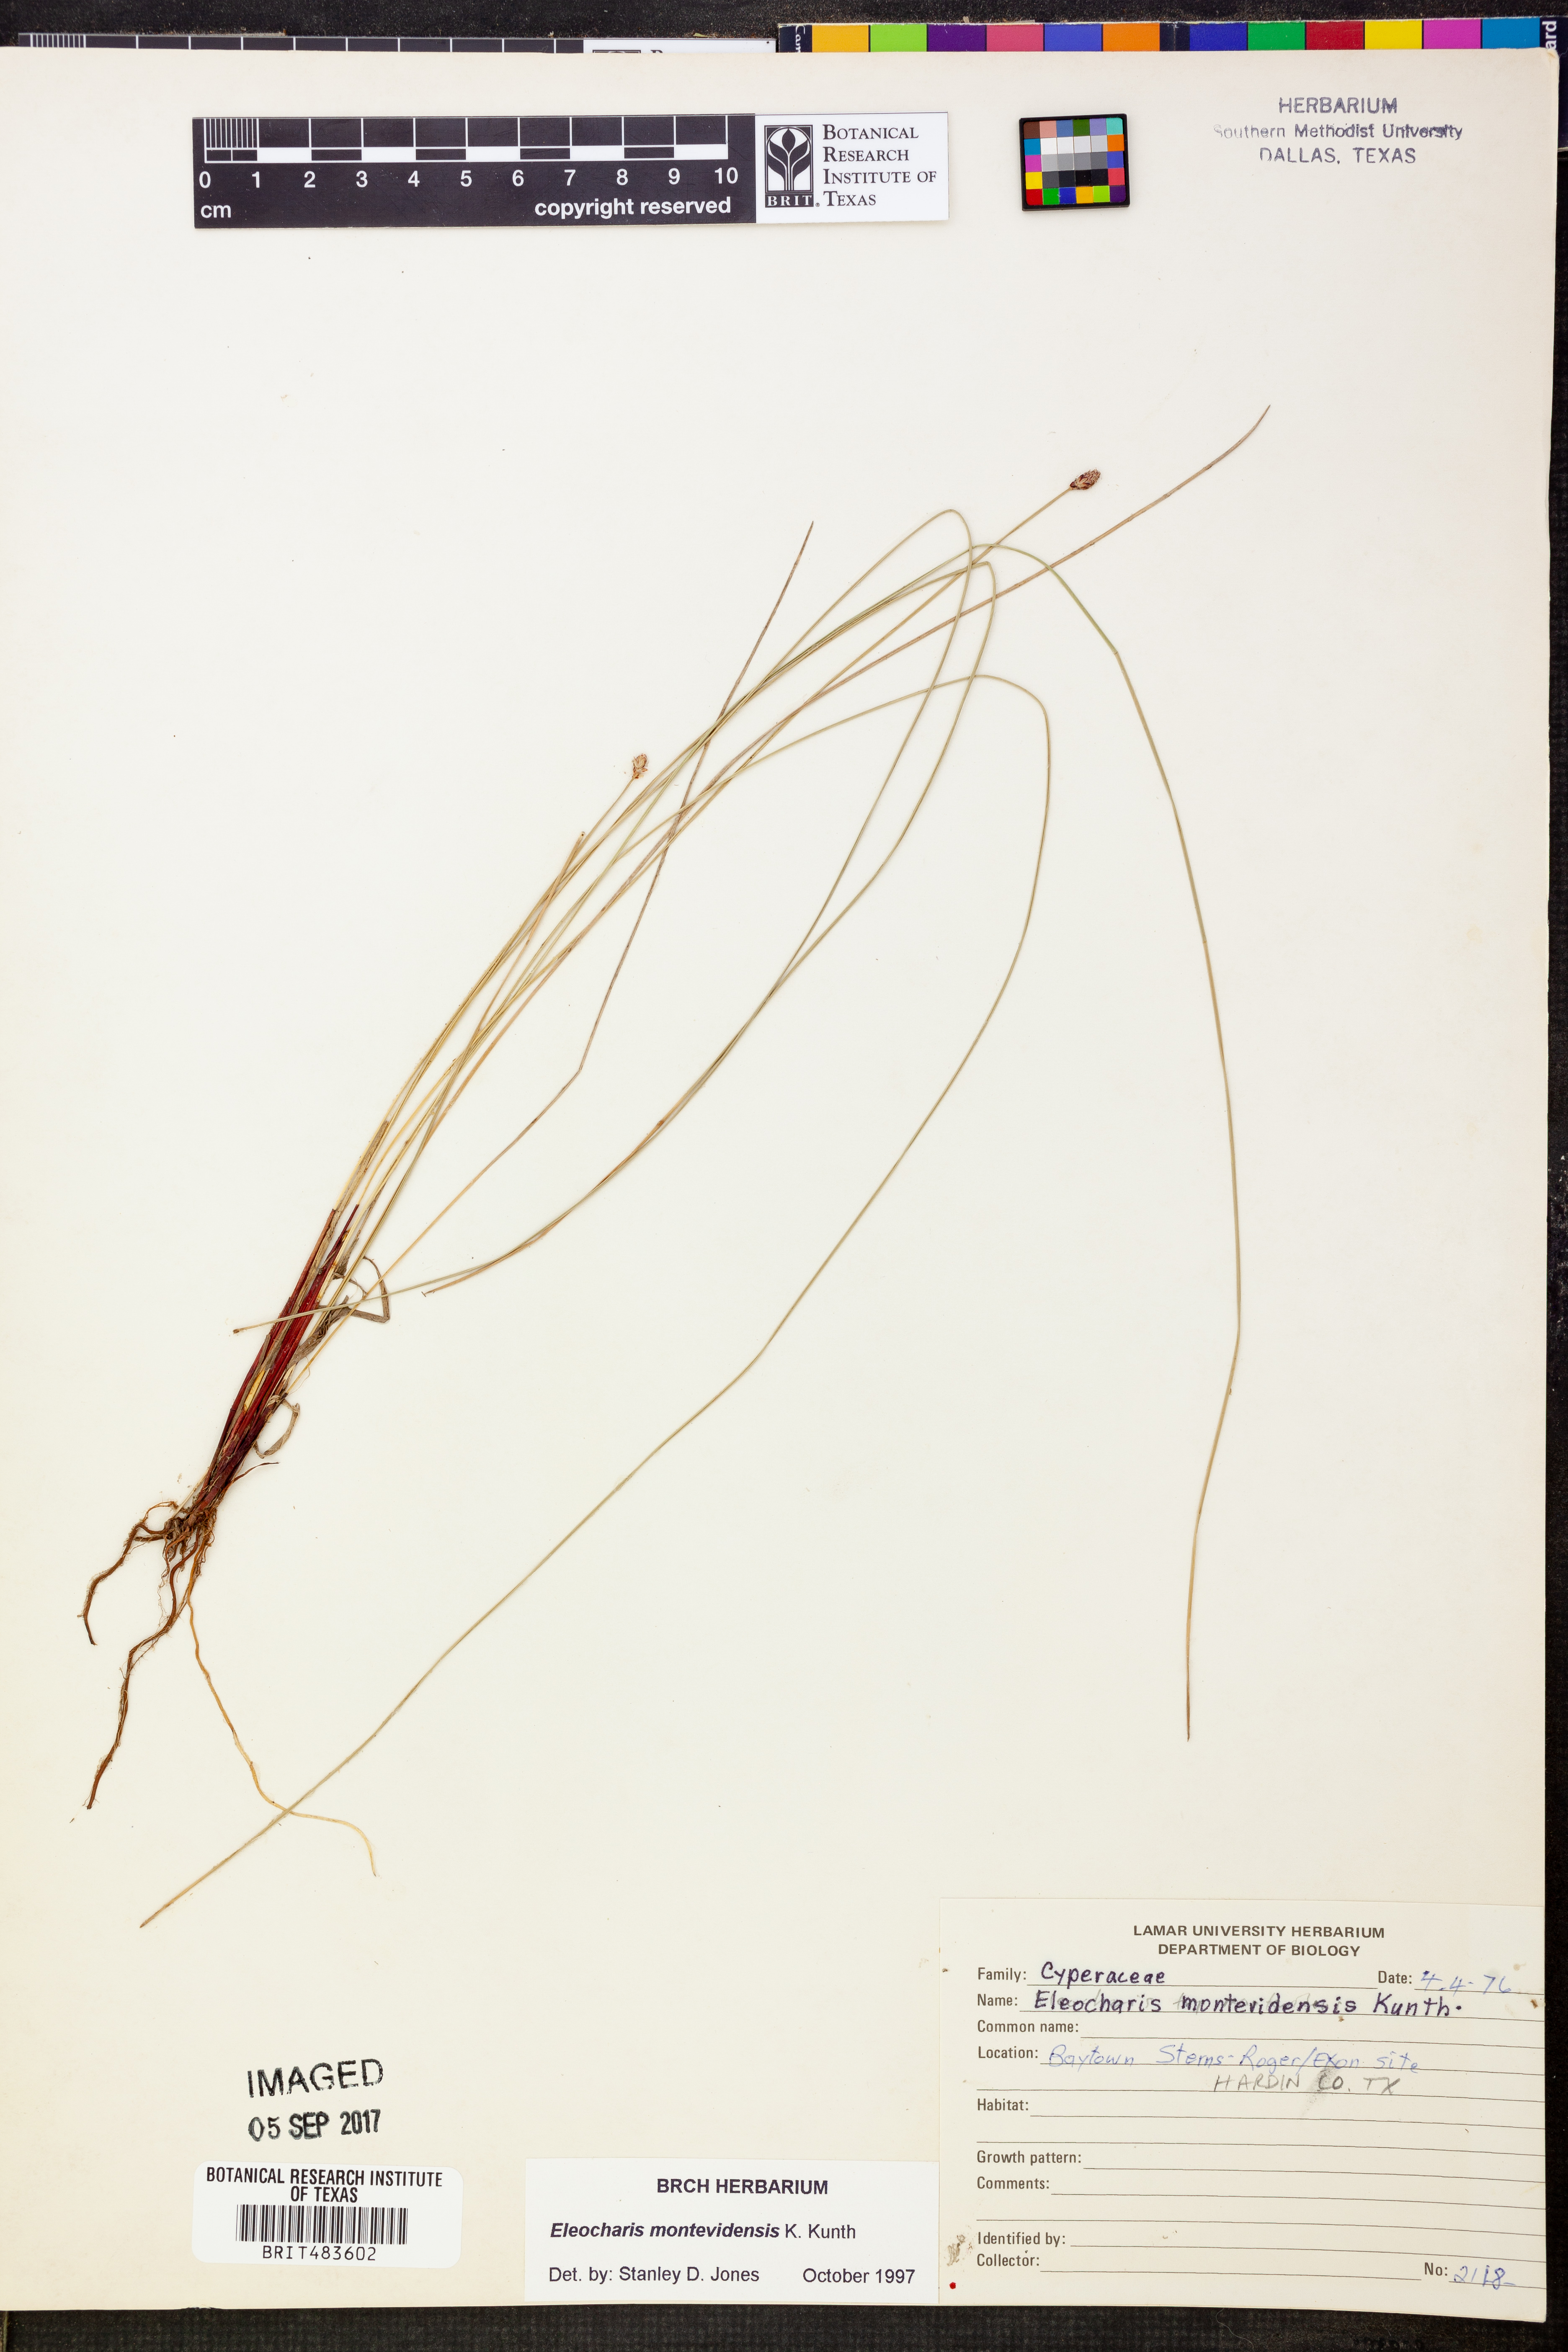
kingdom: Plantae
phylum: Tracheophyta
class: Liliopsida
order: Poales
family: Cyperaceae
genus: Eleocharis
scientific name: Eleocharis montevidensis
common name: Sand spike-rush
